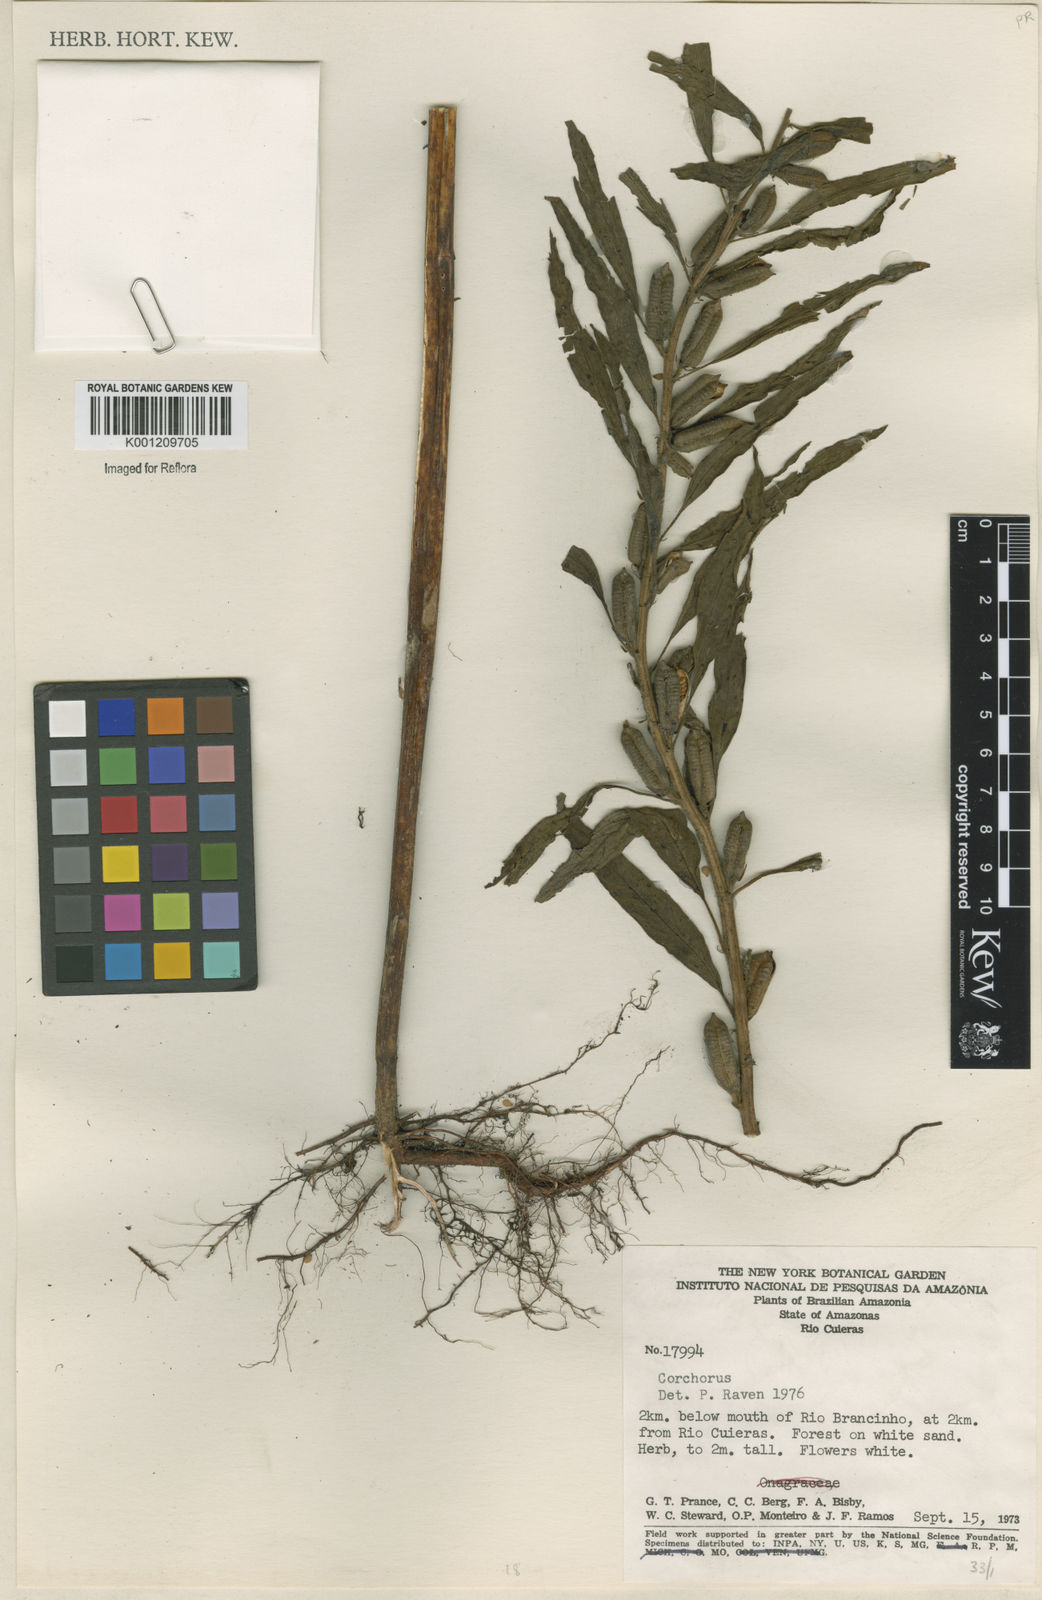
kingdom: Plantae
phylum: Tracheophyta
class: Magnoliopsida
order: Malvales
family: Malvaceae
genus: Corchorus
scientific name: Corchorus
